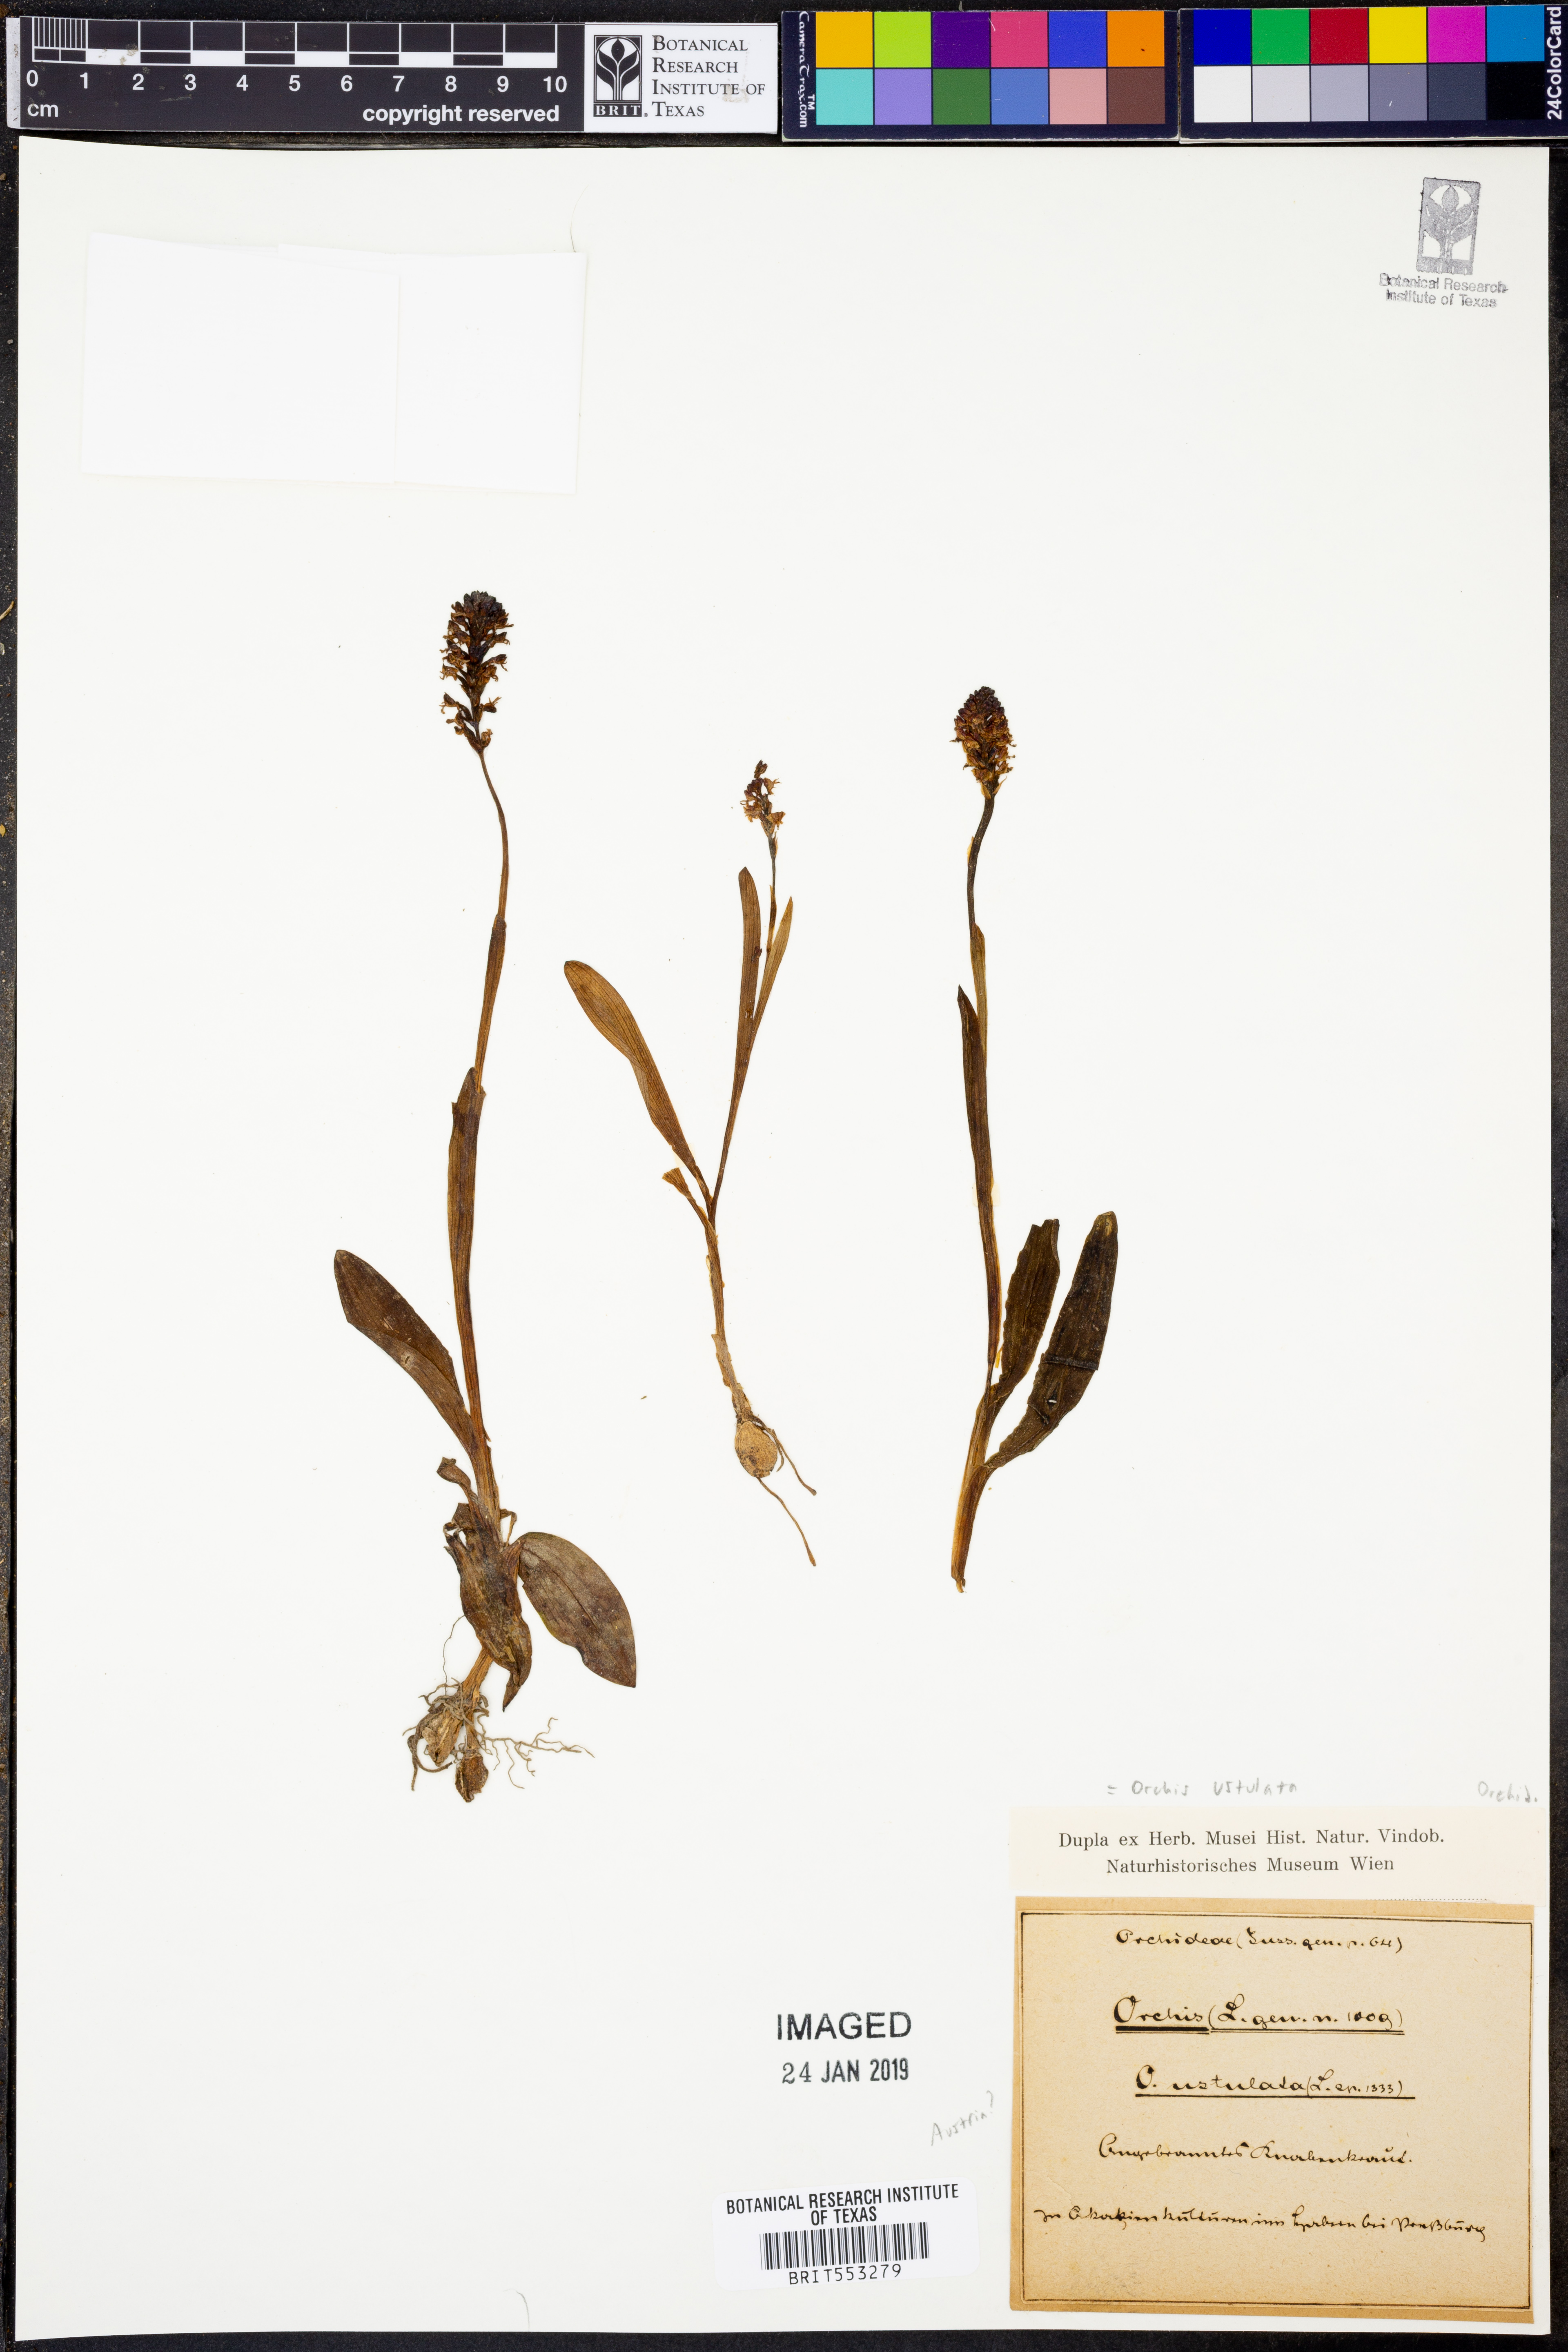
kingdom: Plantae
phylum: Tracheophyta
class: Liliopsida
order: Asparagales
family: Orchidaceae
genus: Orchis
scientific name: Orchis
